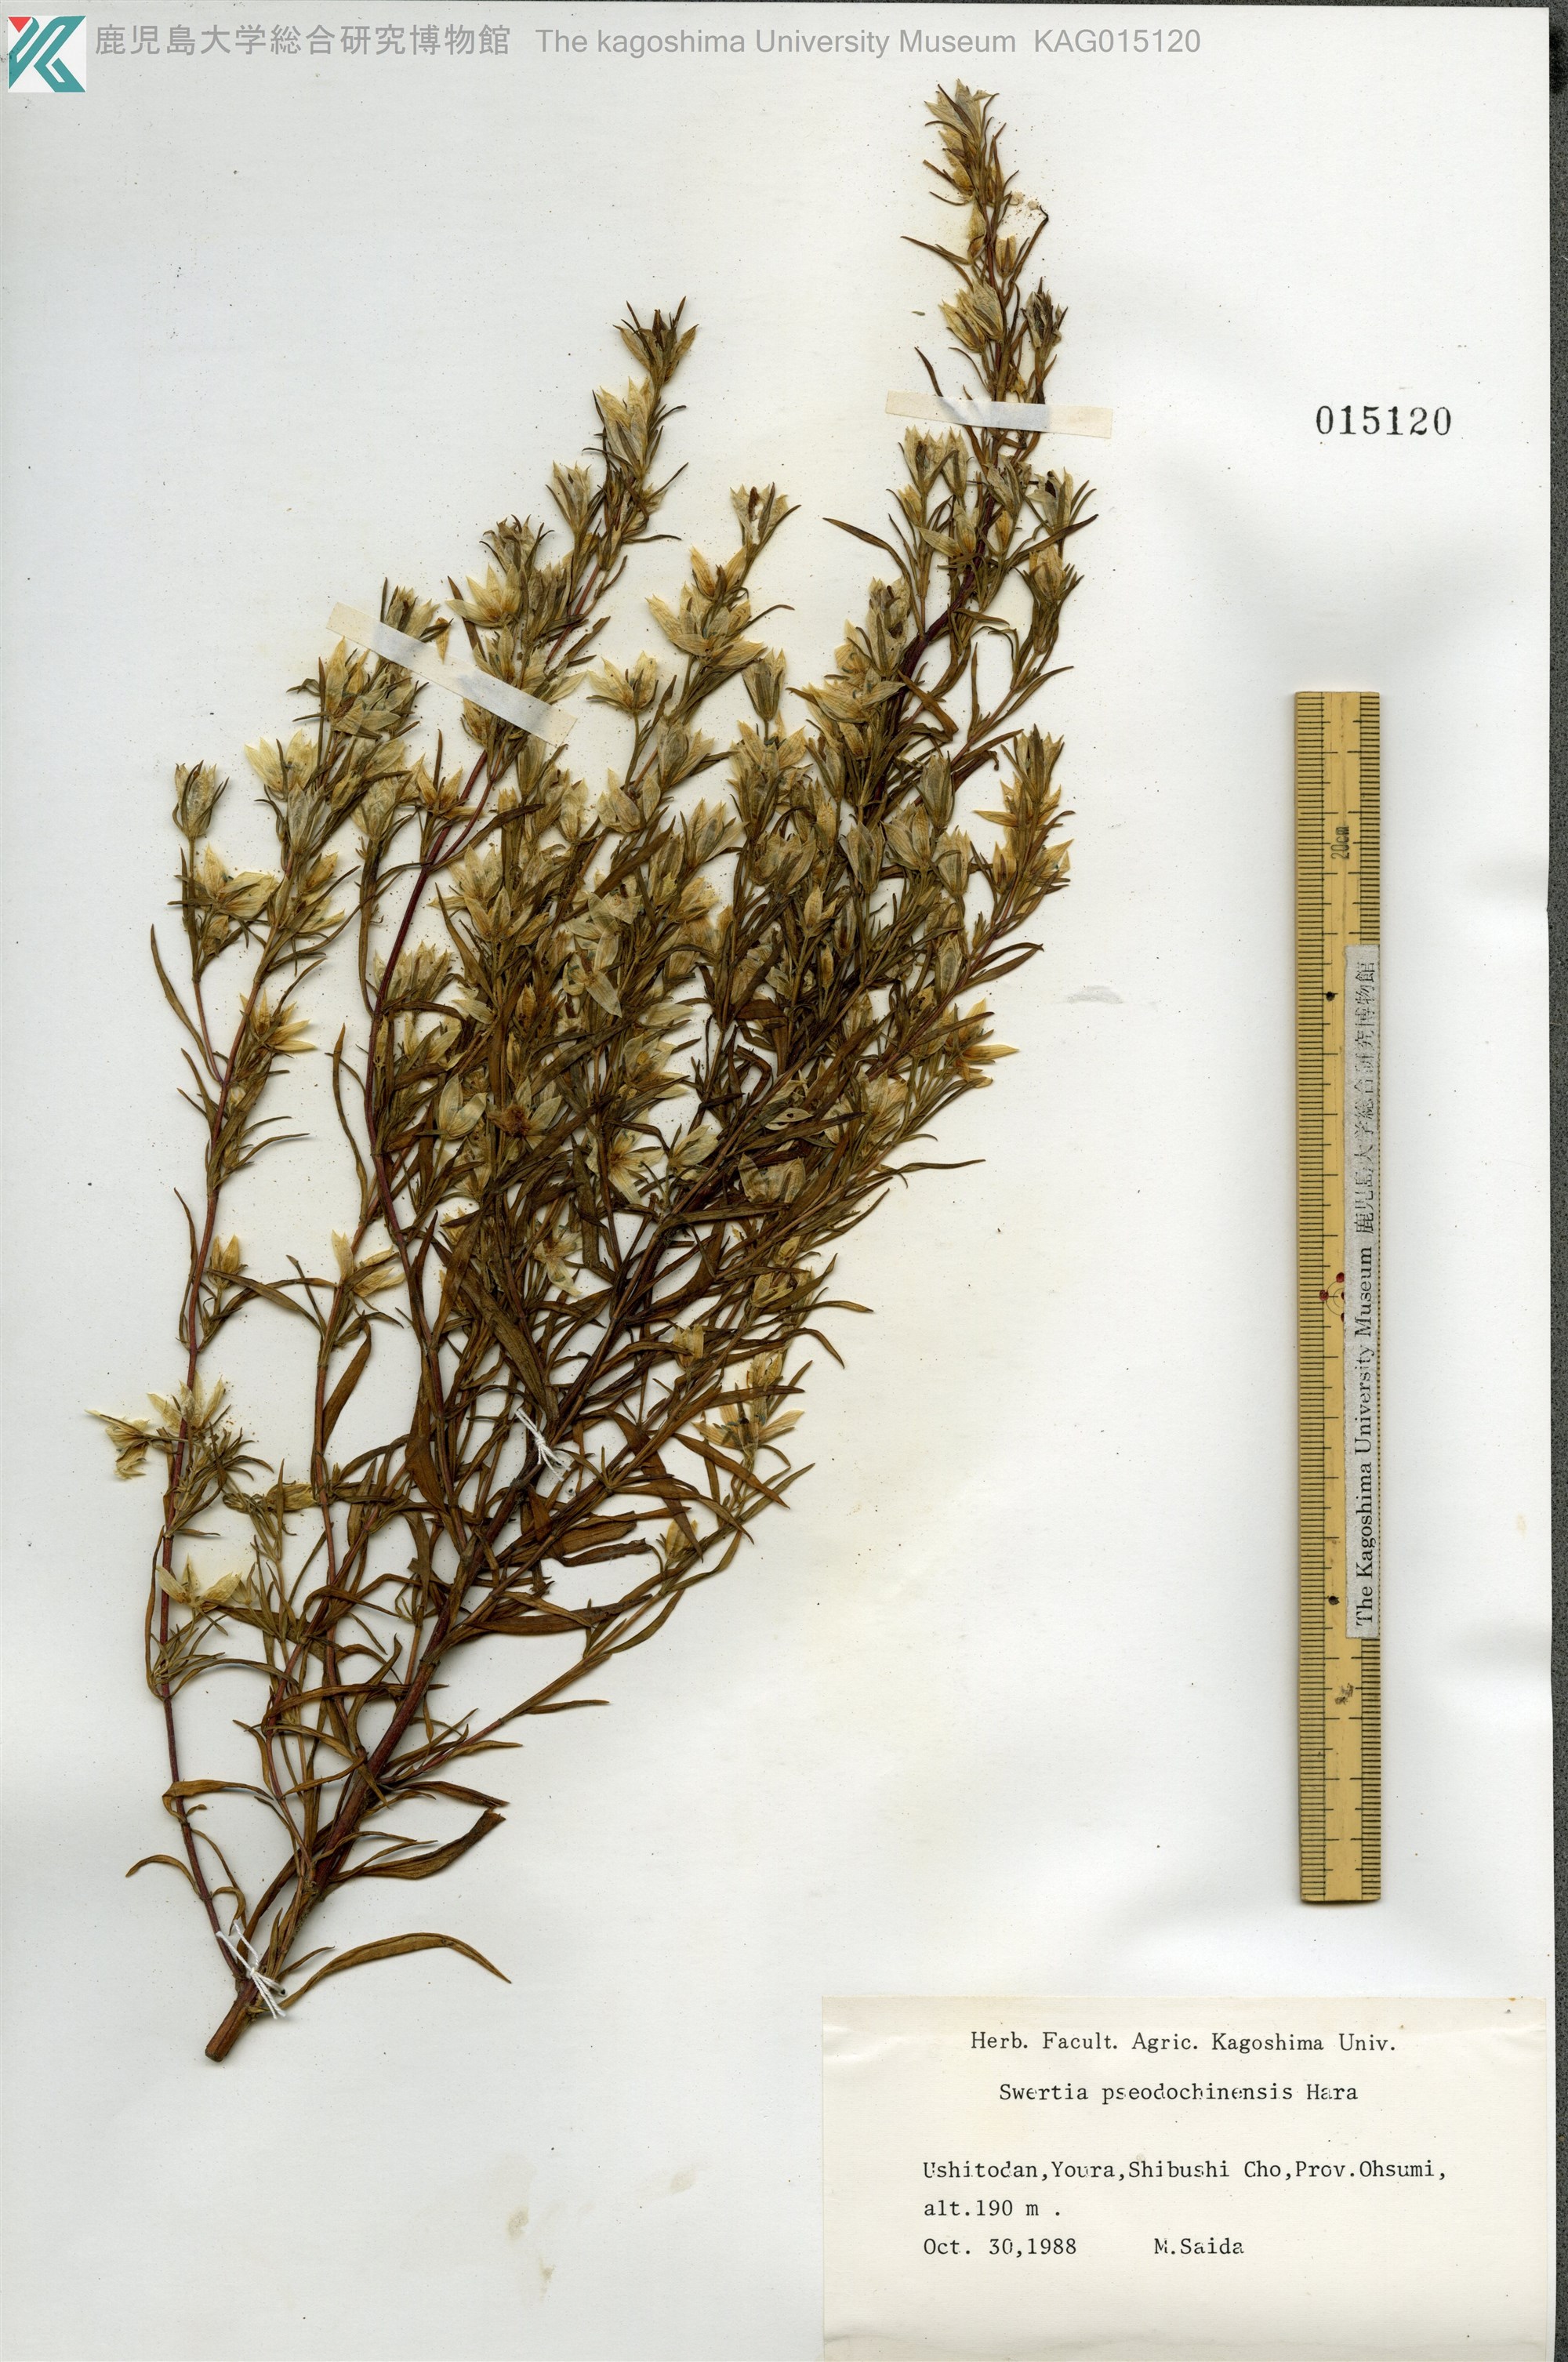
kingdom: Plantae
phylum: Tracheophyta
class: Magnoliopsida
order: Gentianales
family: Gentianaceae
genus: Swertia
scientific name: Swertia pseudochinensis
